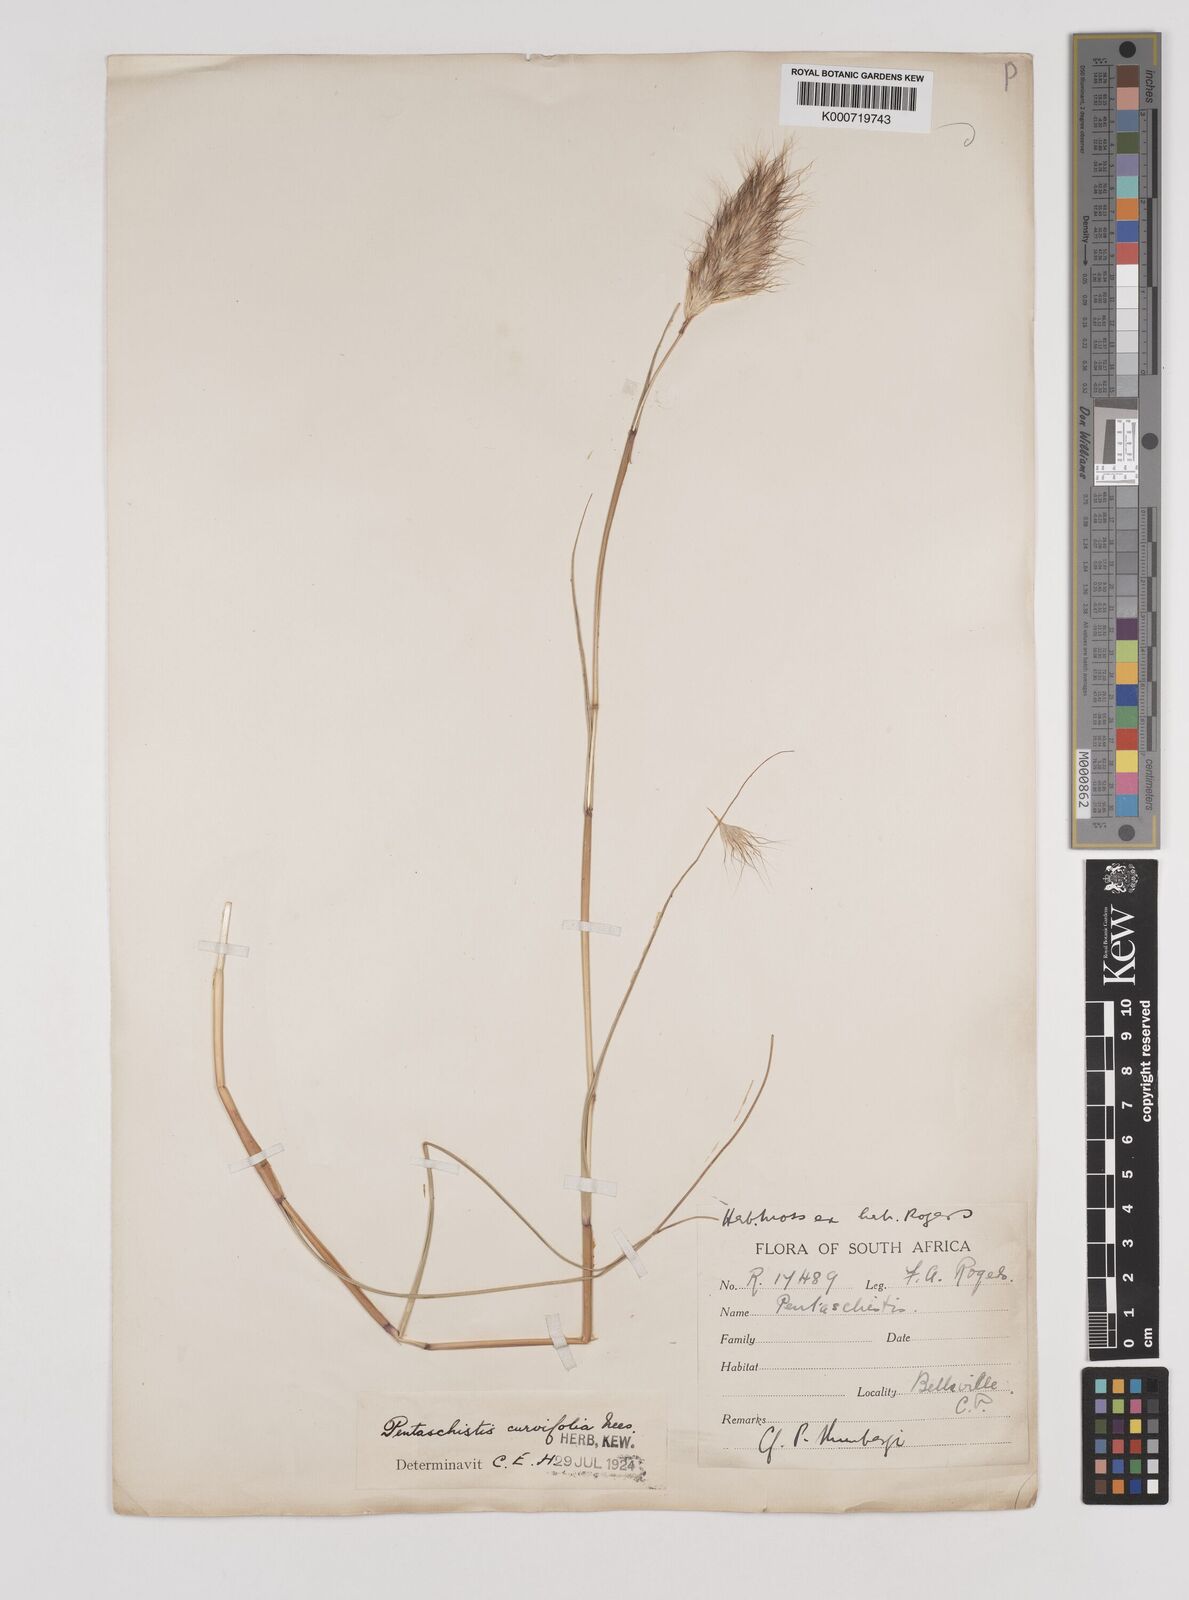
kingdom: Plantae
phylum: Tracheophyta
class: Liliopsida
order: Poales
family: Poaceae
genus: Pentameris
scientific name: Pentameris curvifolia
